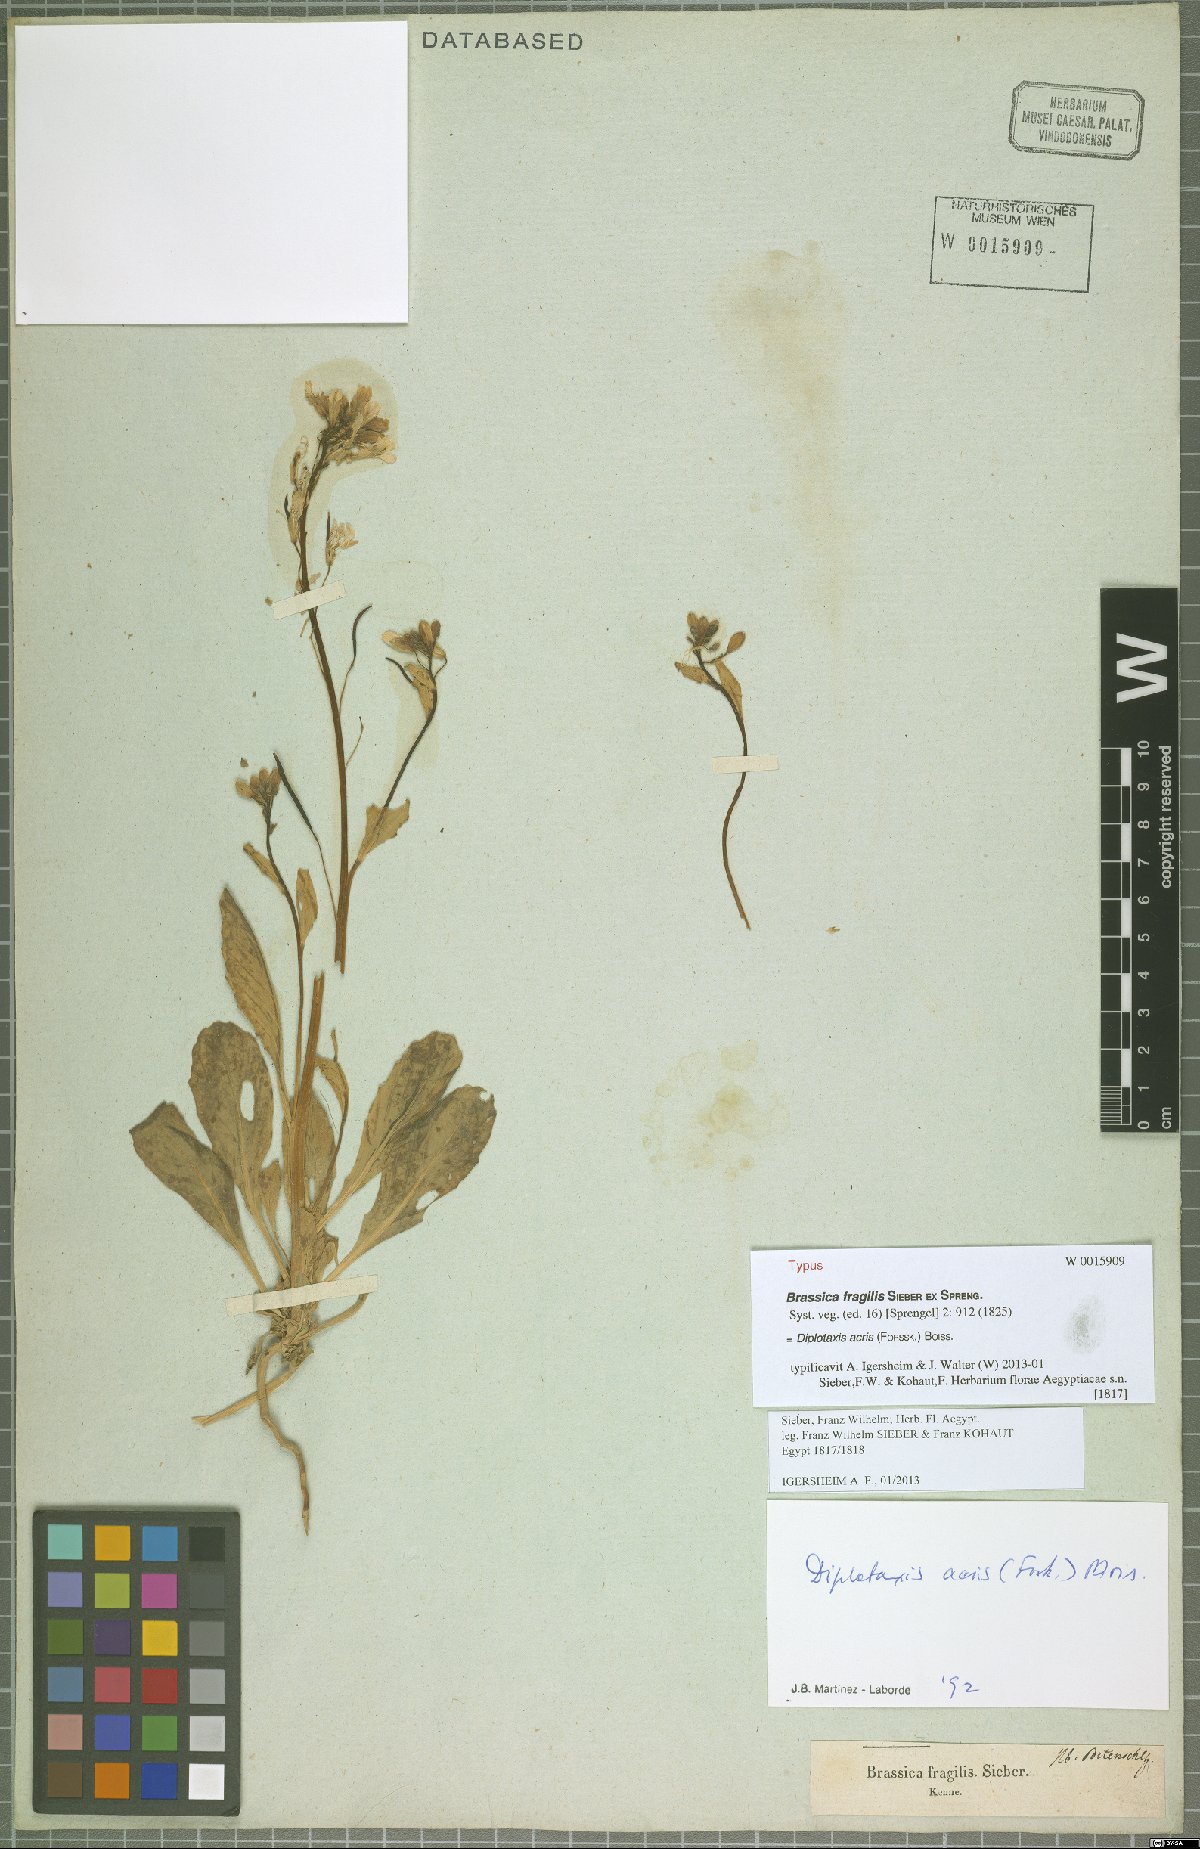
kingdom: Plantae
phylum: Tracheophyta
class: Magnoliopsida
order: Brassicales
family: Brassicaceae
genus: Diplotaxis
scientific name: Diplotaxis acris
